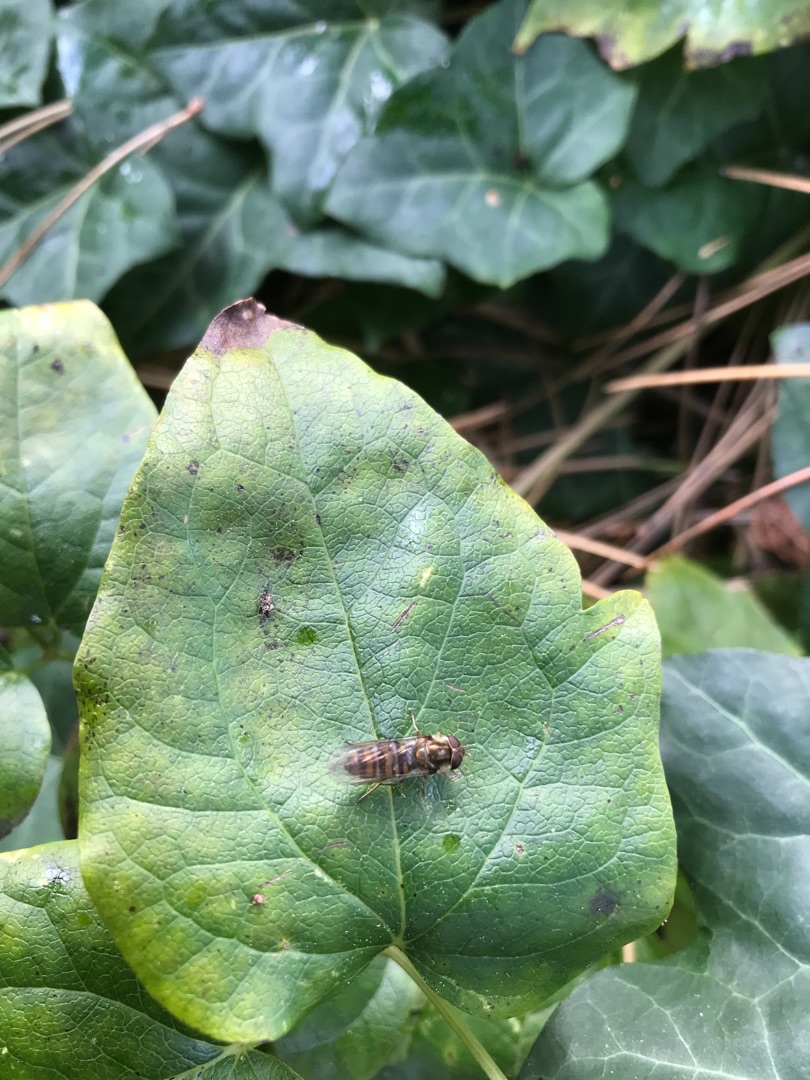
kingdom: Animalia
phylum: Arthropoda
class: Insecta
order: Diptera
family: Syrphidae
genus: Episyrphus
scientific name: Episyrphus balteatus
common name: Dobbeltbåndet svirreflue
